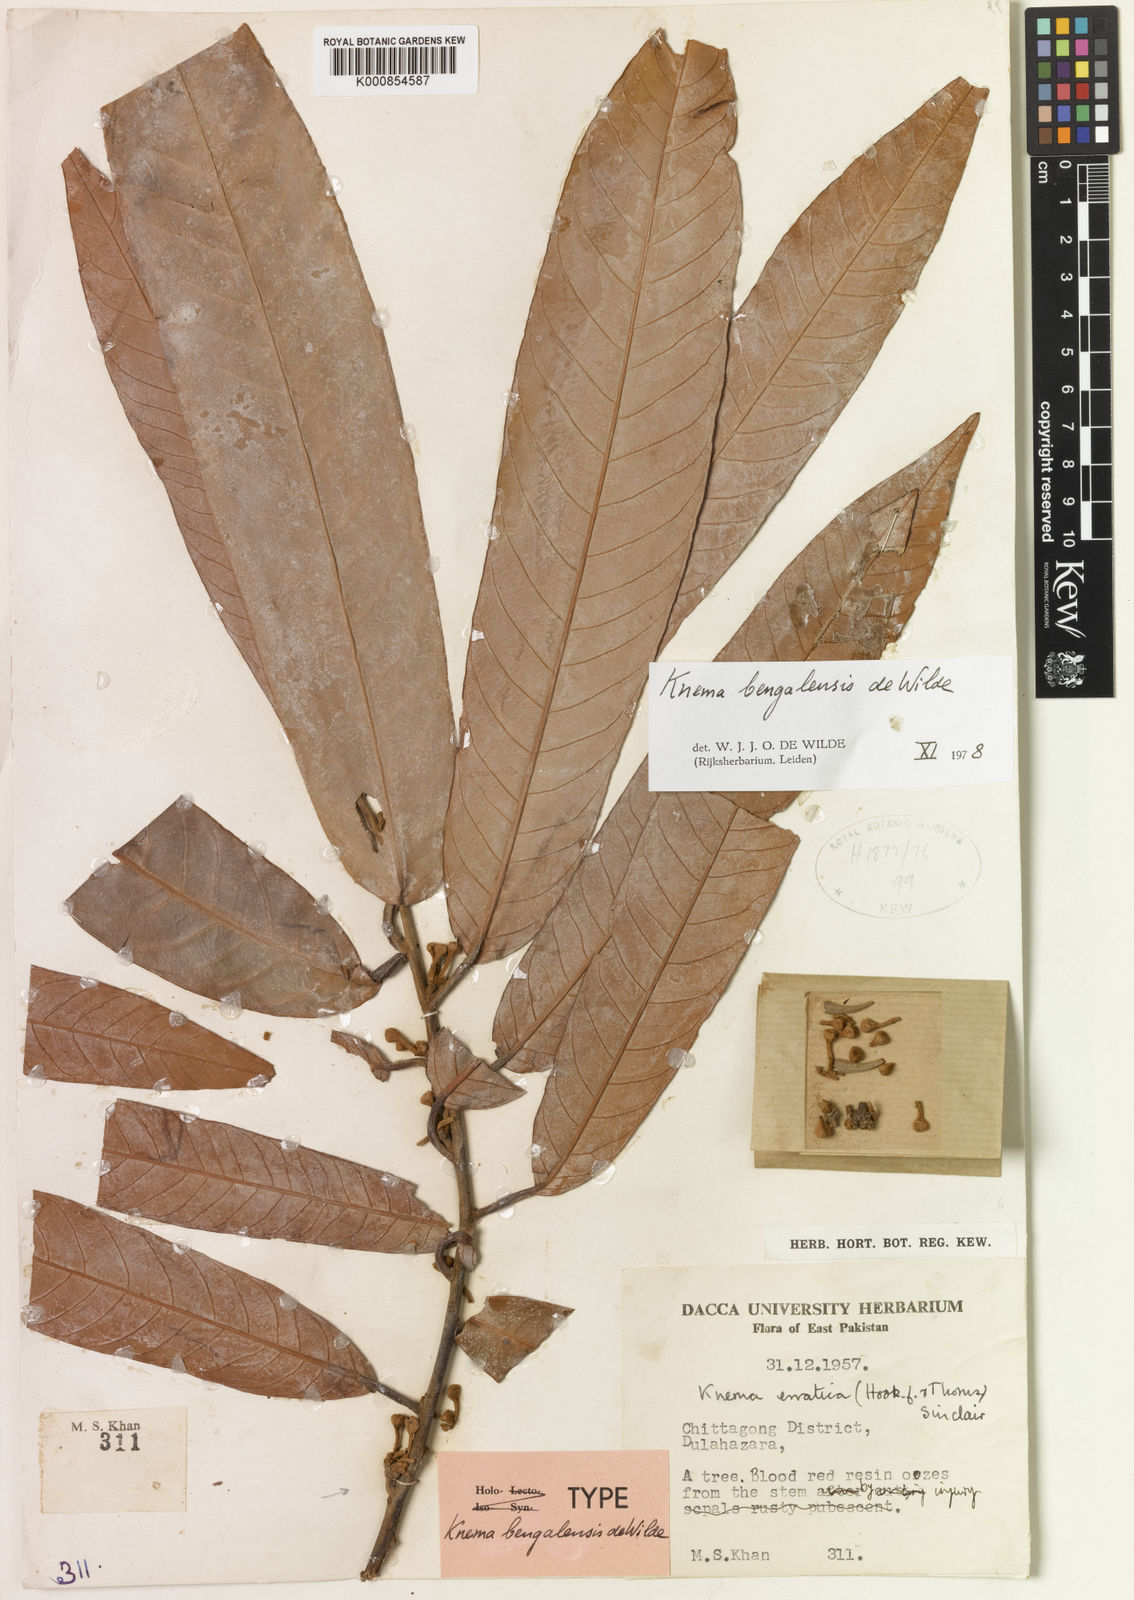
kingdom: Plantae
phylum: Tracheophyta
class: Magnoliopsida
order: Magnoliales
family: Myristicaceae
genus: Knema
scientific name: Knema erratica
